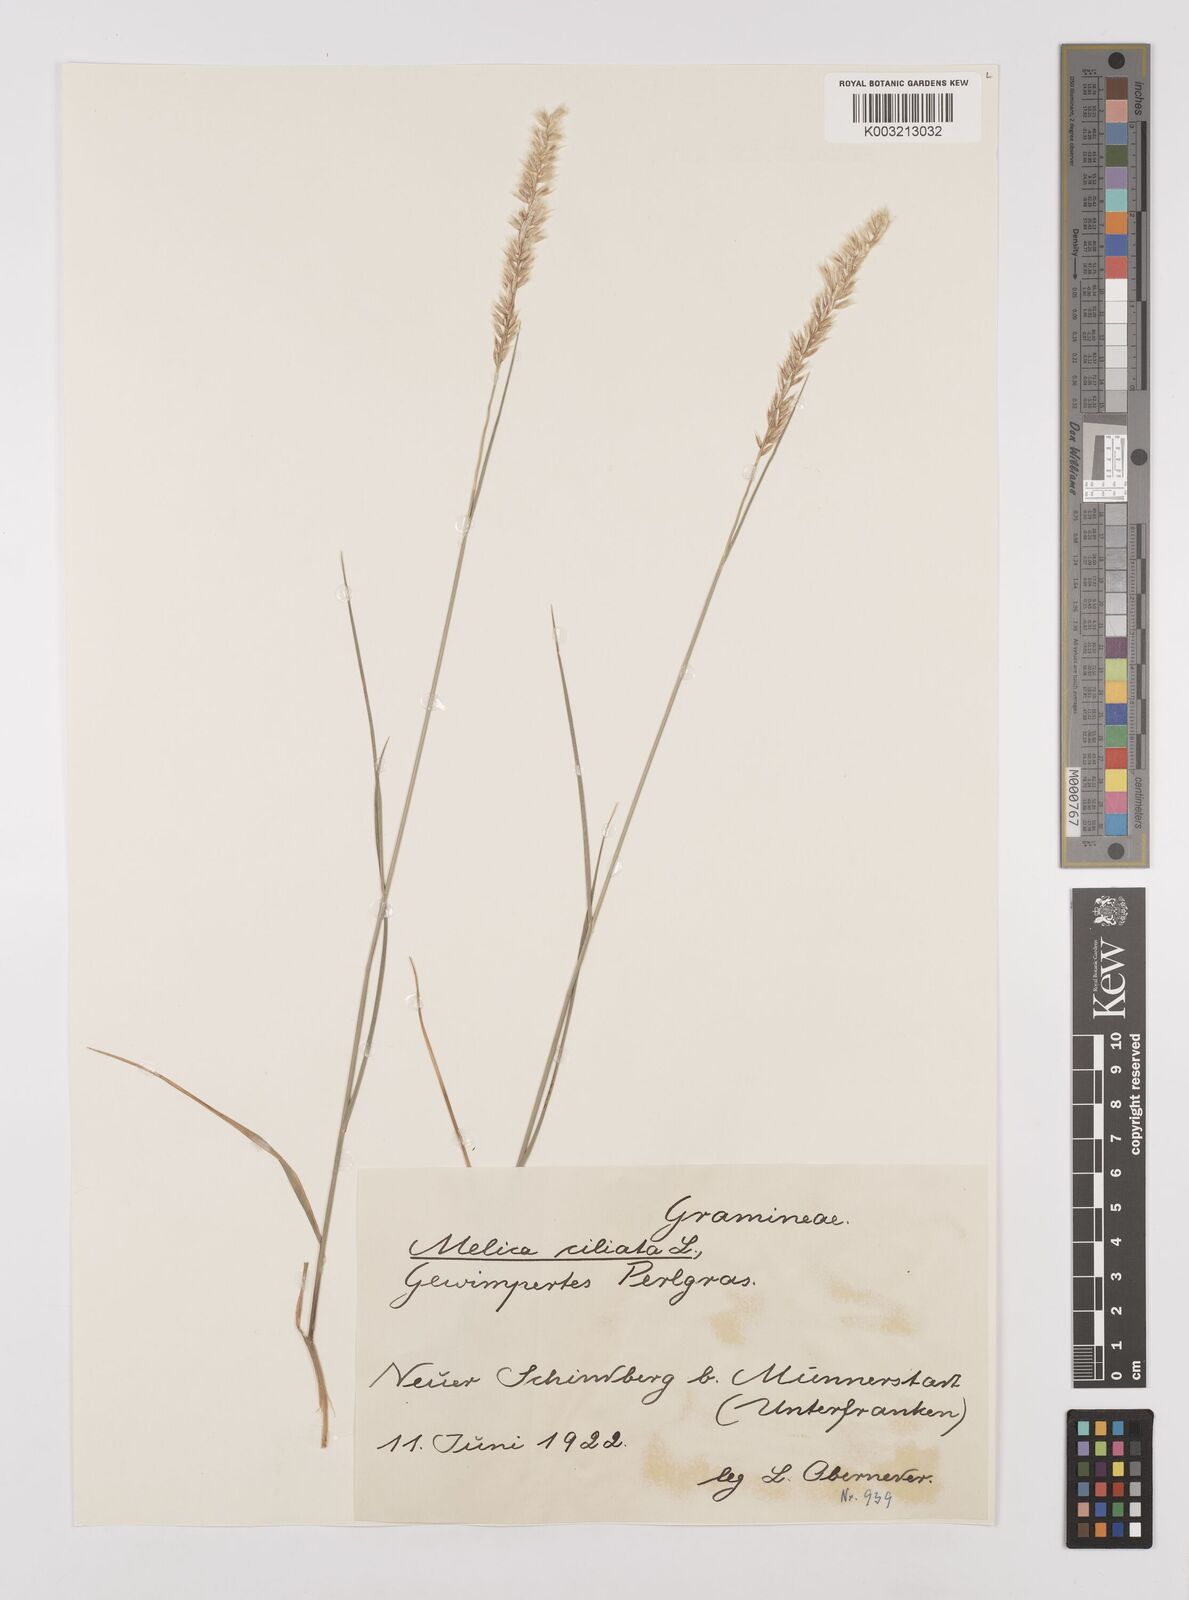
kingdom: Plantae
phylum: Tracheophyta
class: Liliopsida
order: Poales
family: Poaceae
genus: Melica
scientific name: Melica ciliata
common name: Hairy melicgrass
